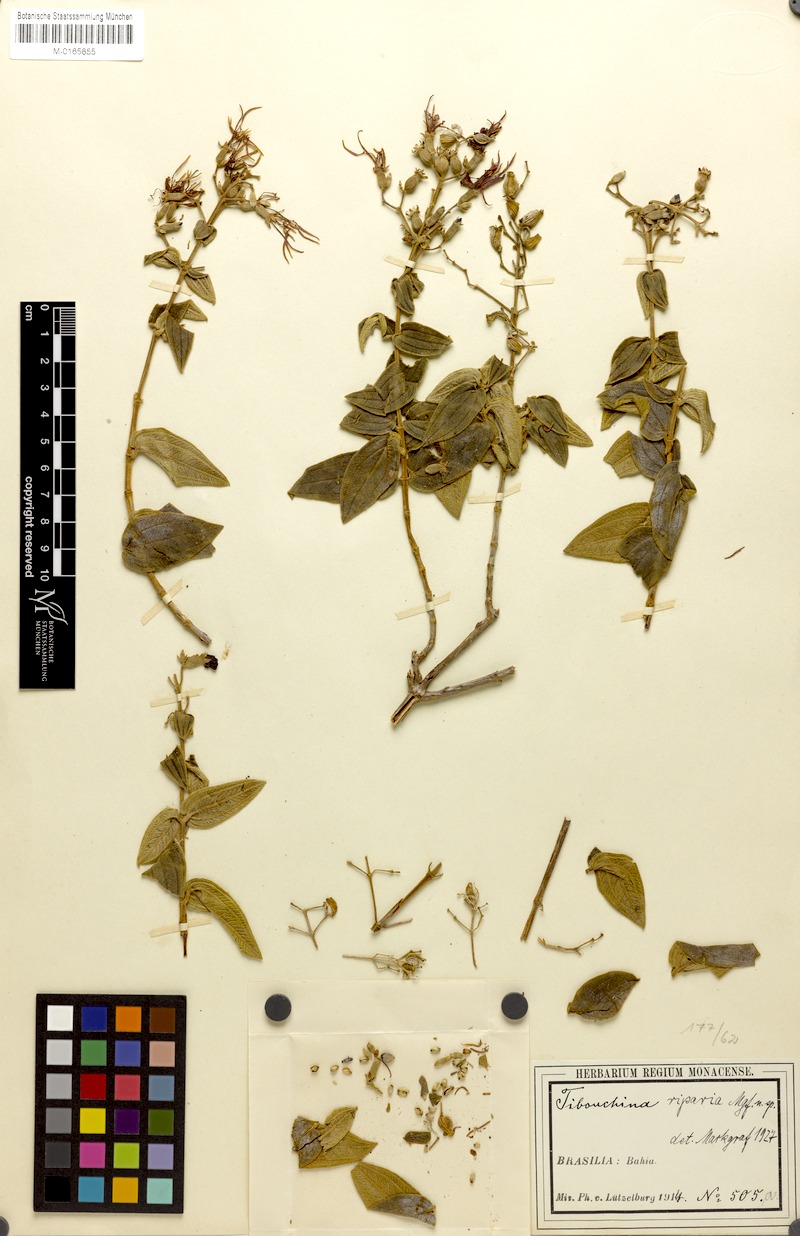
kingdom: Plantae
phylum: Tracheophyta
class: Magnoliopsida
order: Myrtales
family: Melastomataceae
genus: Pleroma
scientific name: Pleroma riparium
